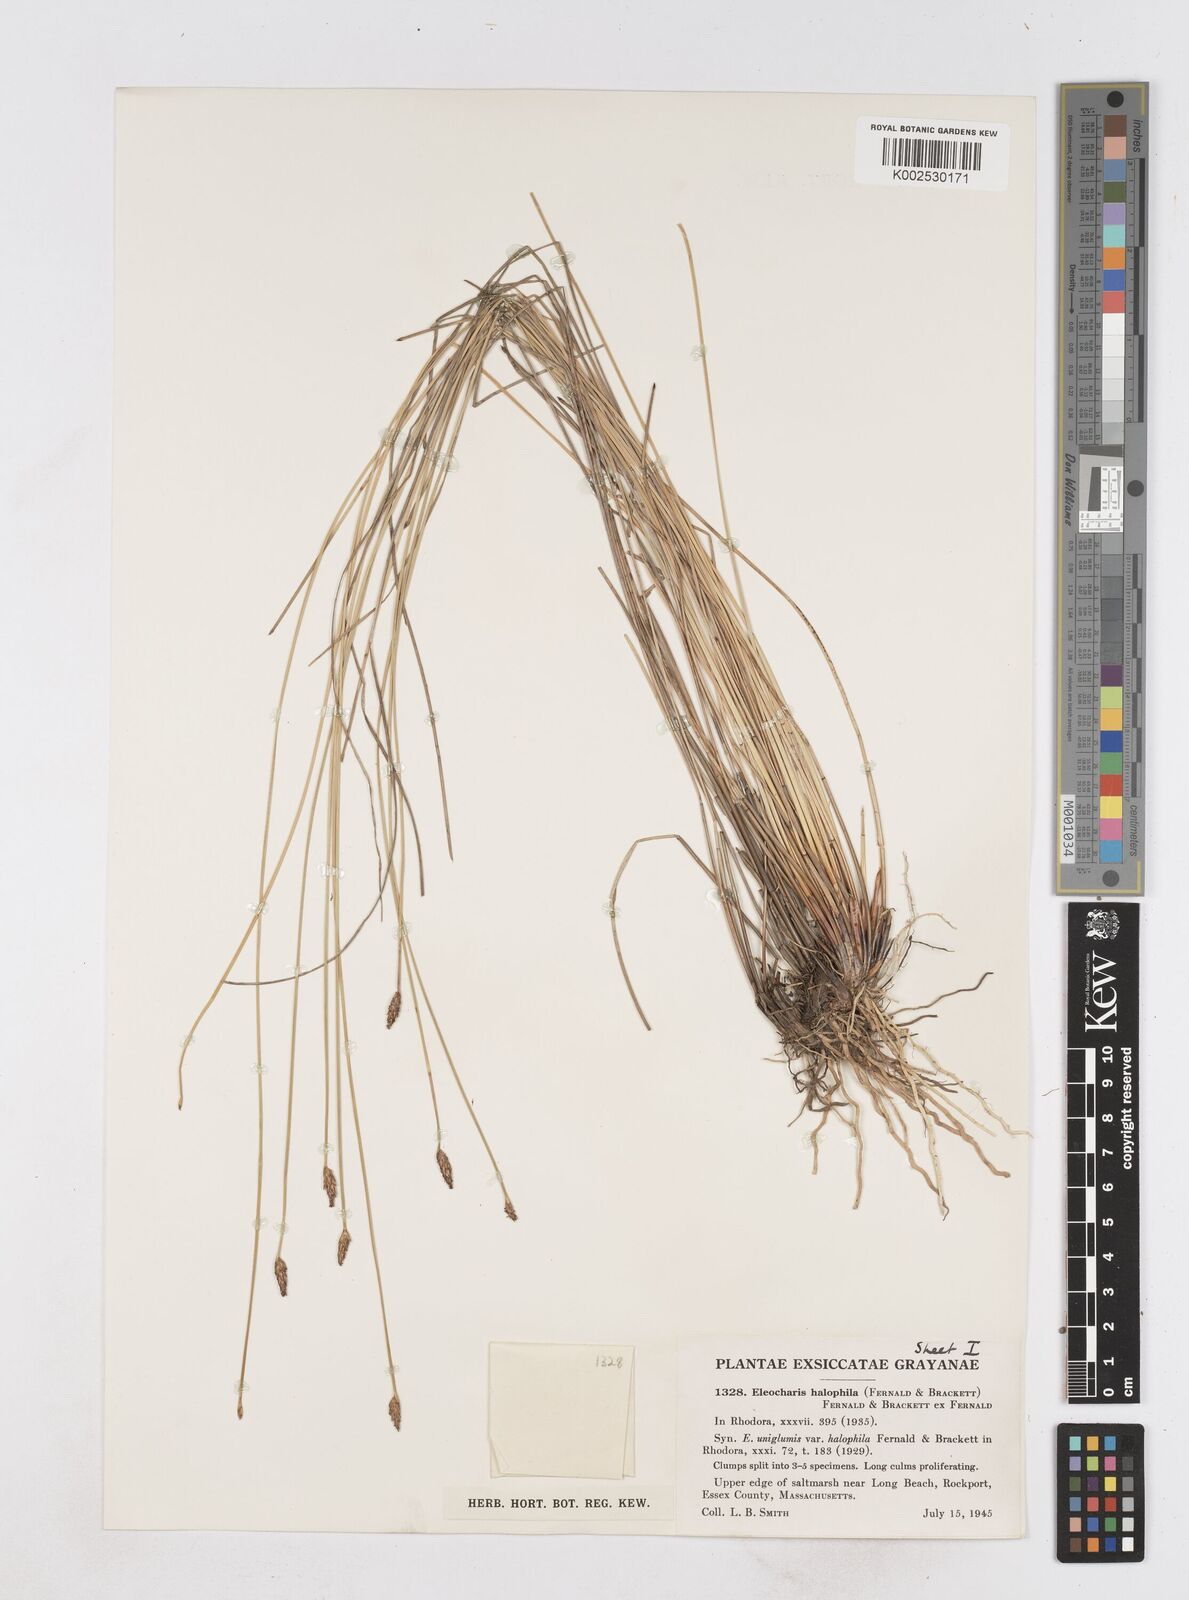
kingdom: Plantae
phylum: Tracheophyta
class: Liliopsida
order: Poales
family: Cyperaceae
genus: Eleocharis
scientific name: Eleocharis uniglumis
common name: Slender spike-rush
